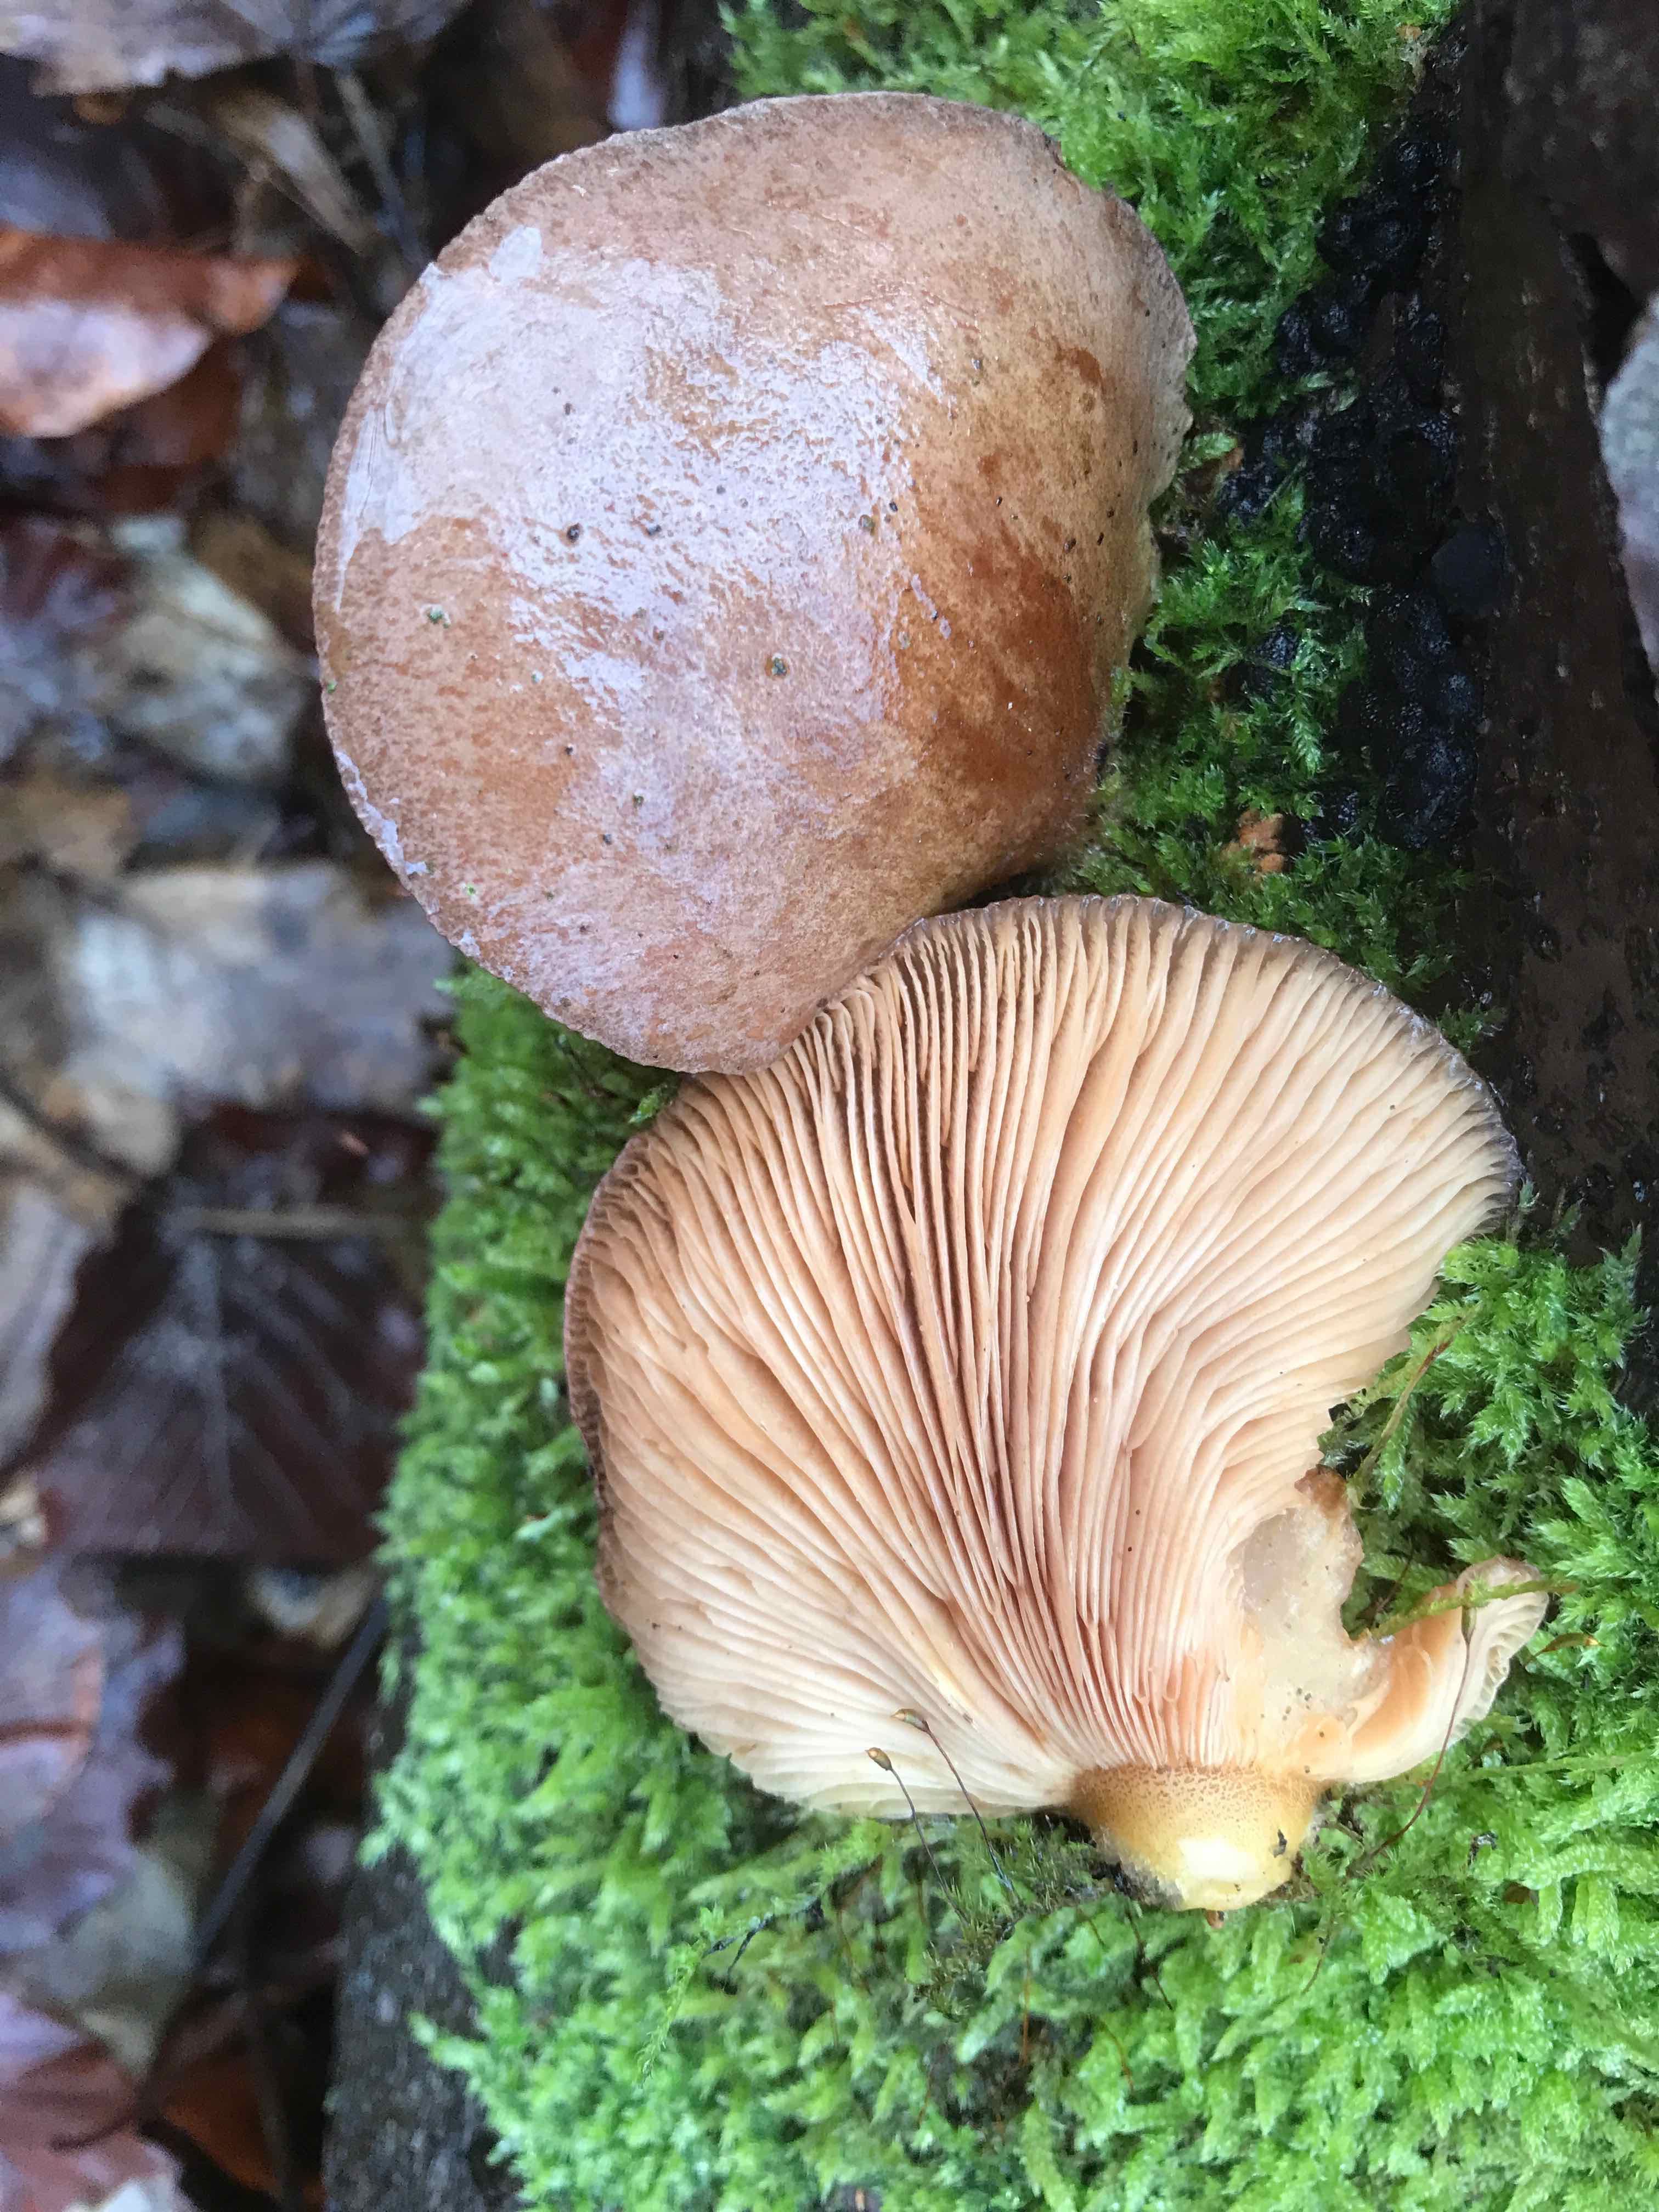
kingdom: Fungi
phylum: Basidiomycota
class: Agaricomycetes
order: Agaricales
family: Sarcomyxaceae
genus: Sarcomyxa
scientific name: Sarcomyxa serotina
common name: gummihat
